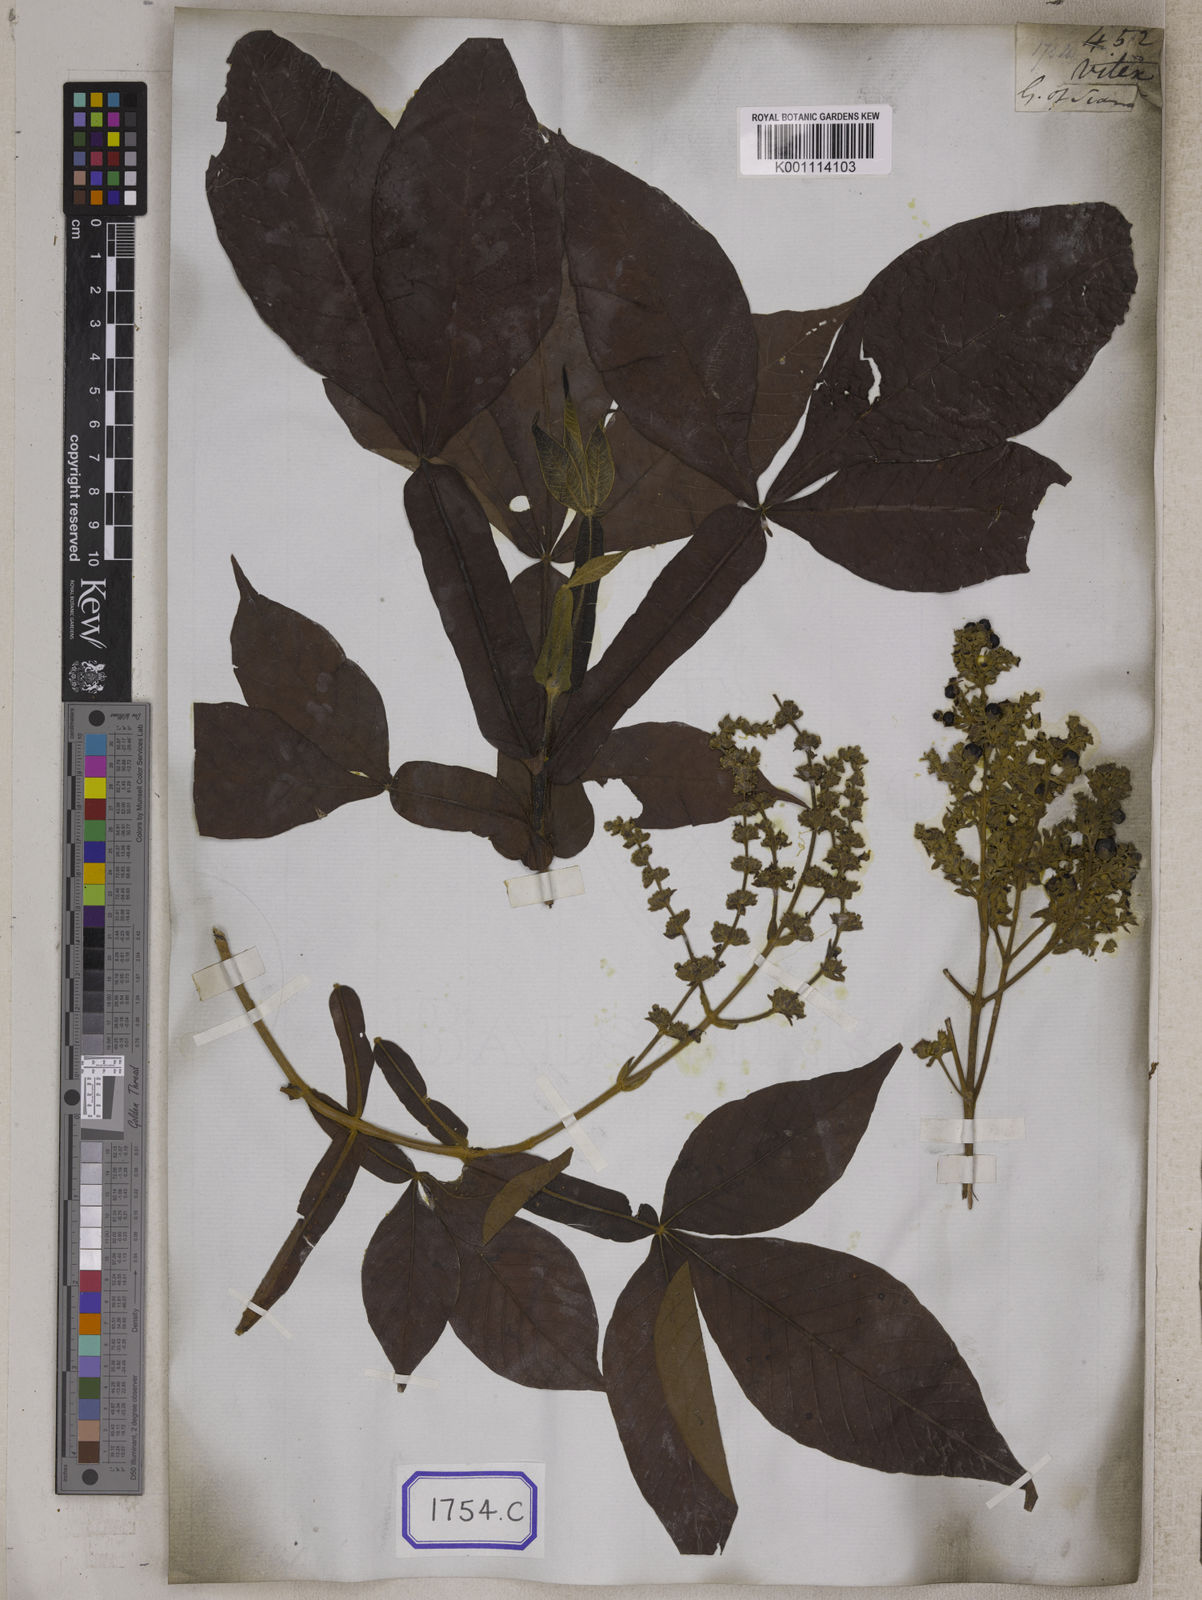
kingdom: Plantae
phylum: Tracheophyta
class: Magnoliopsida
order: Lamiales
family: Lamiaceae
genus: Vitex
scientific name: Vitex
